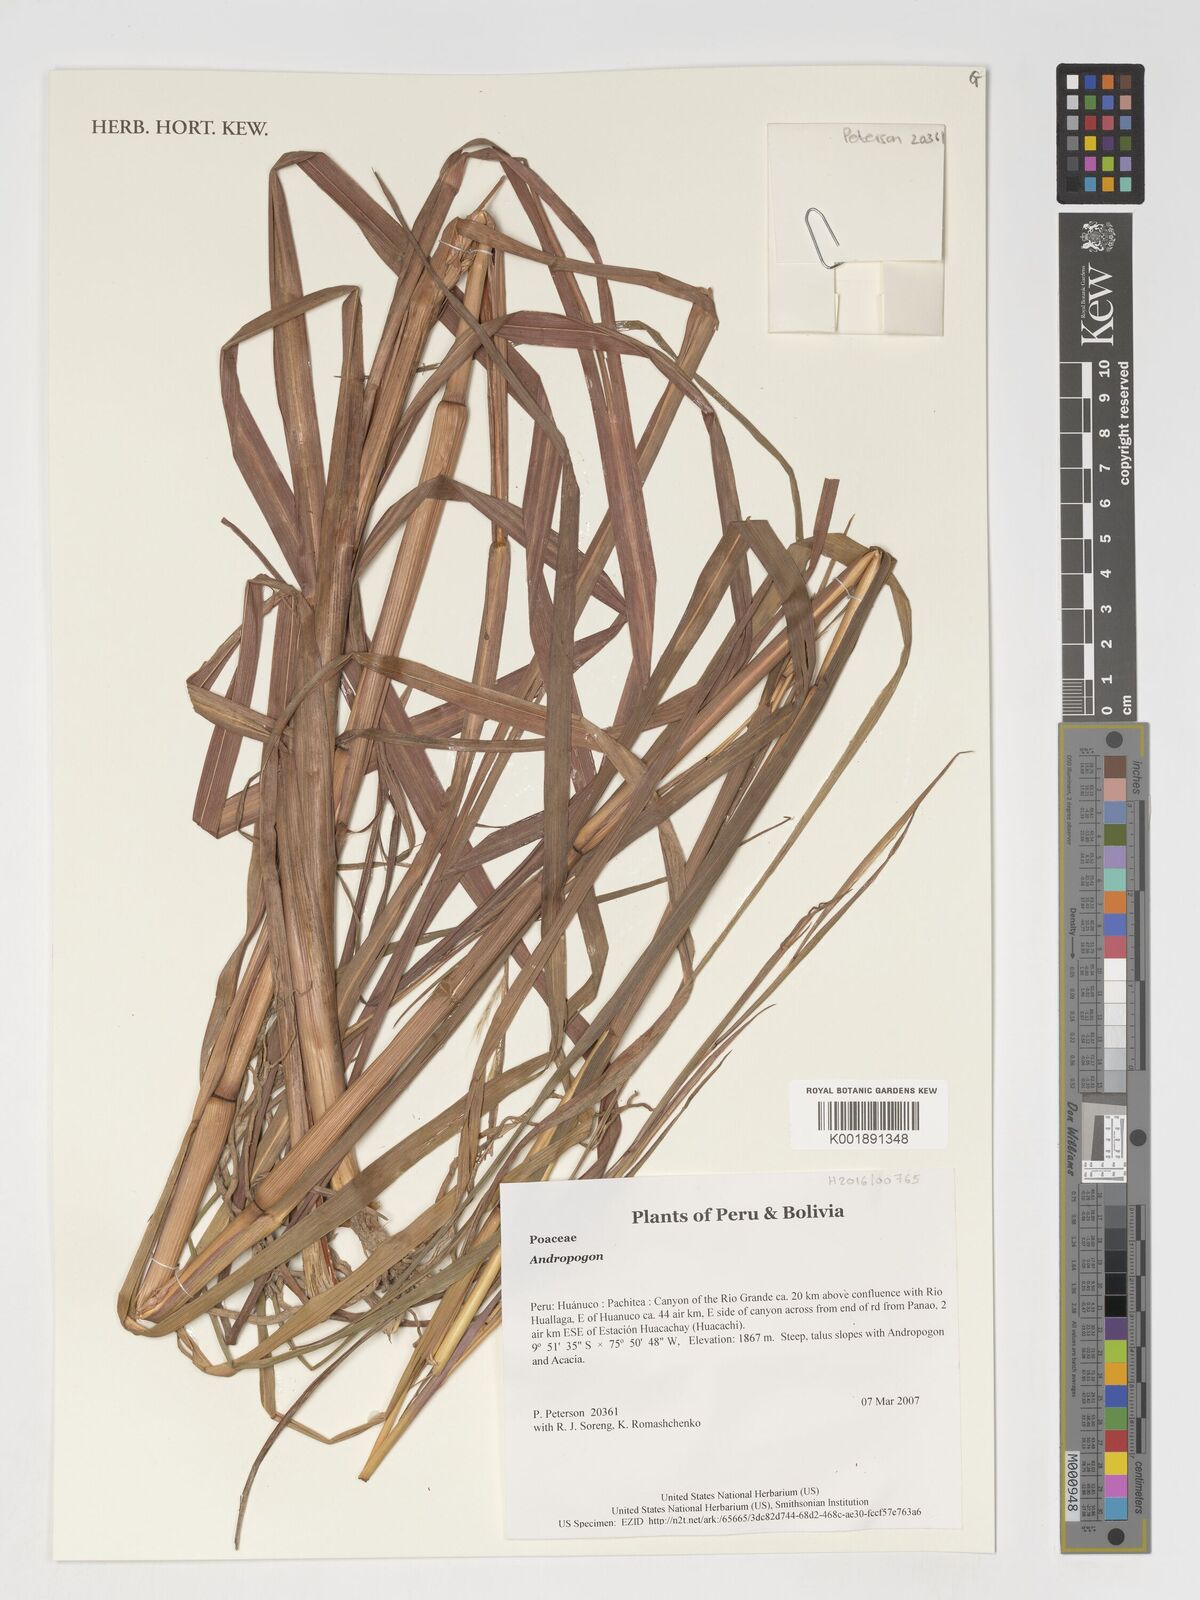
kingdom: Plantae
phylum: Tracheophyta
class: Liliopsida
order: Poales
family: Poaceae
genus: Andropogon
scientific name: Andropogon
